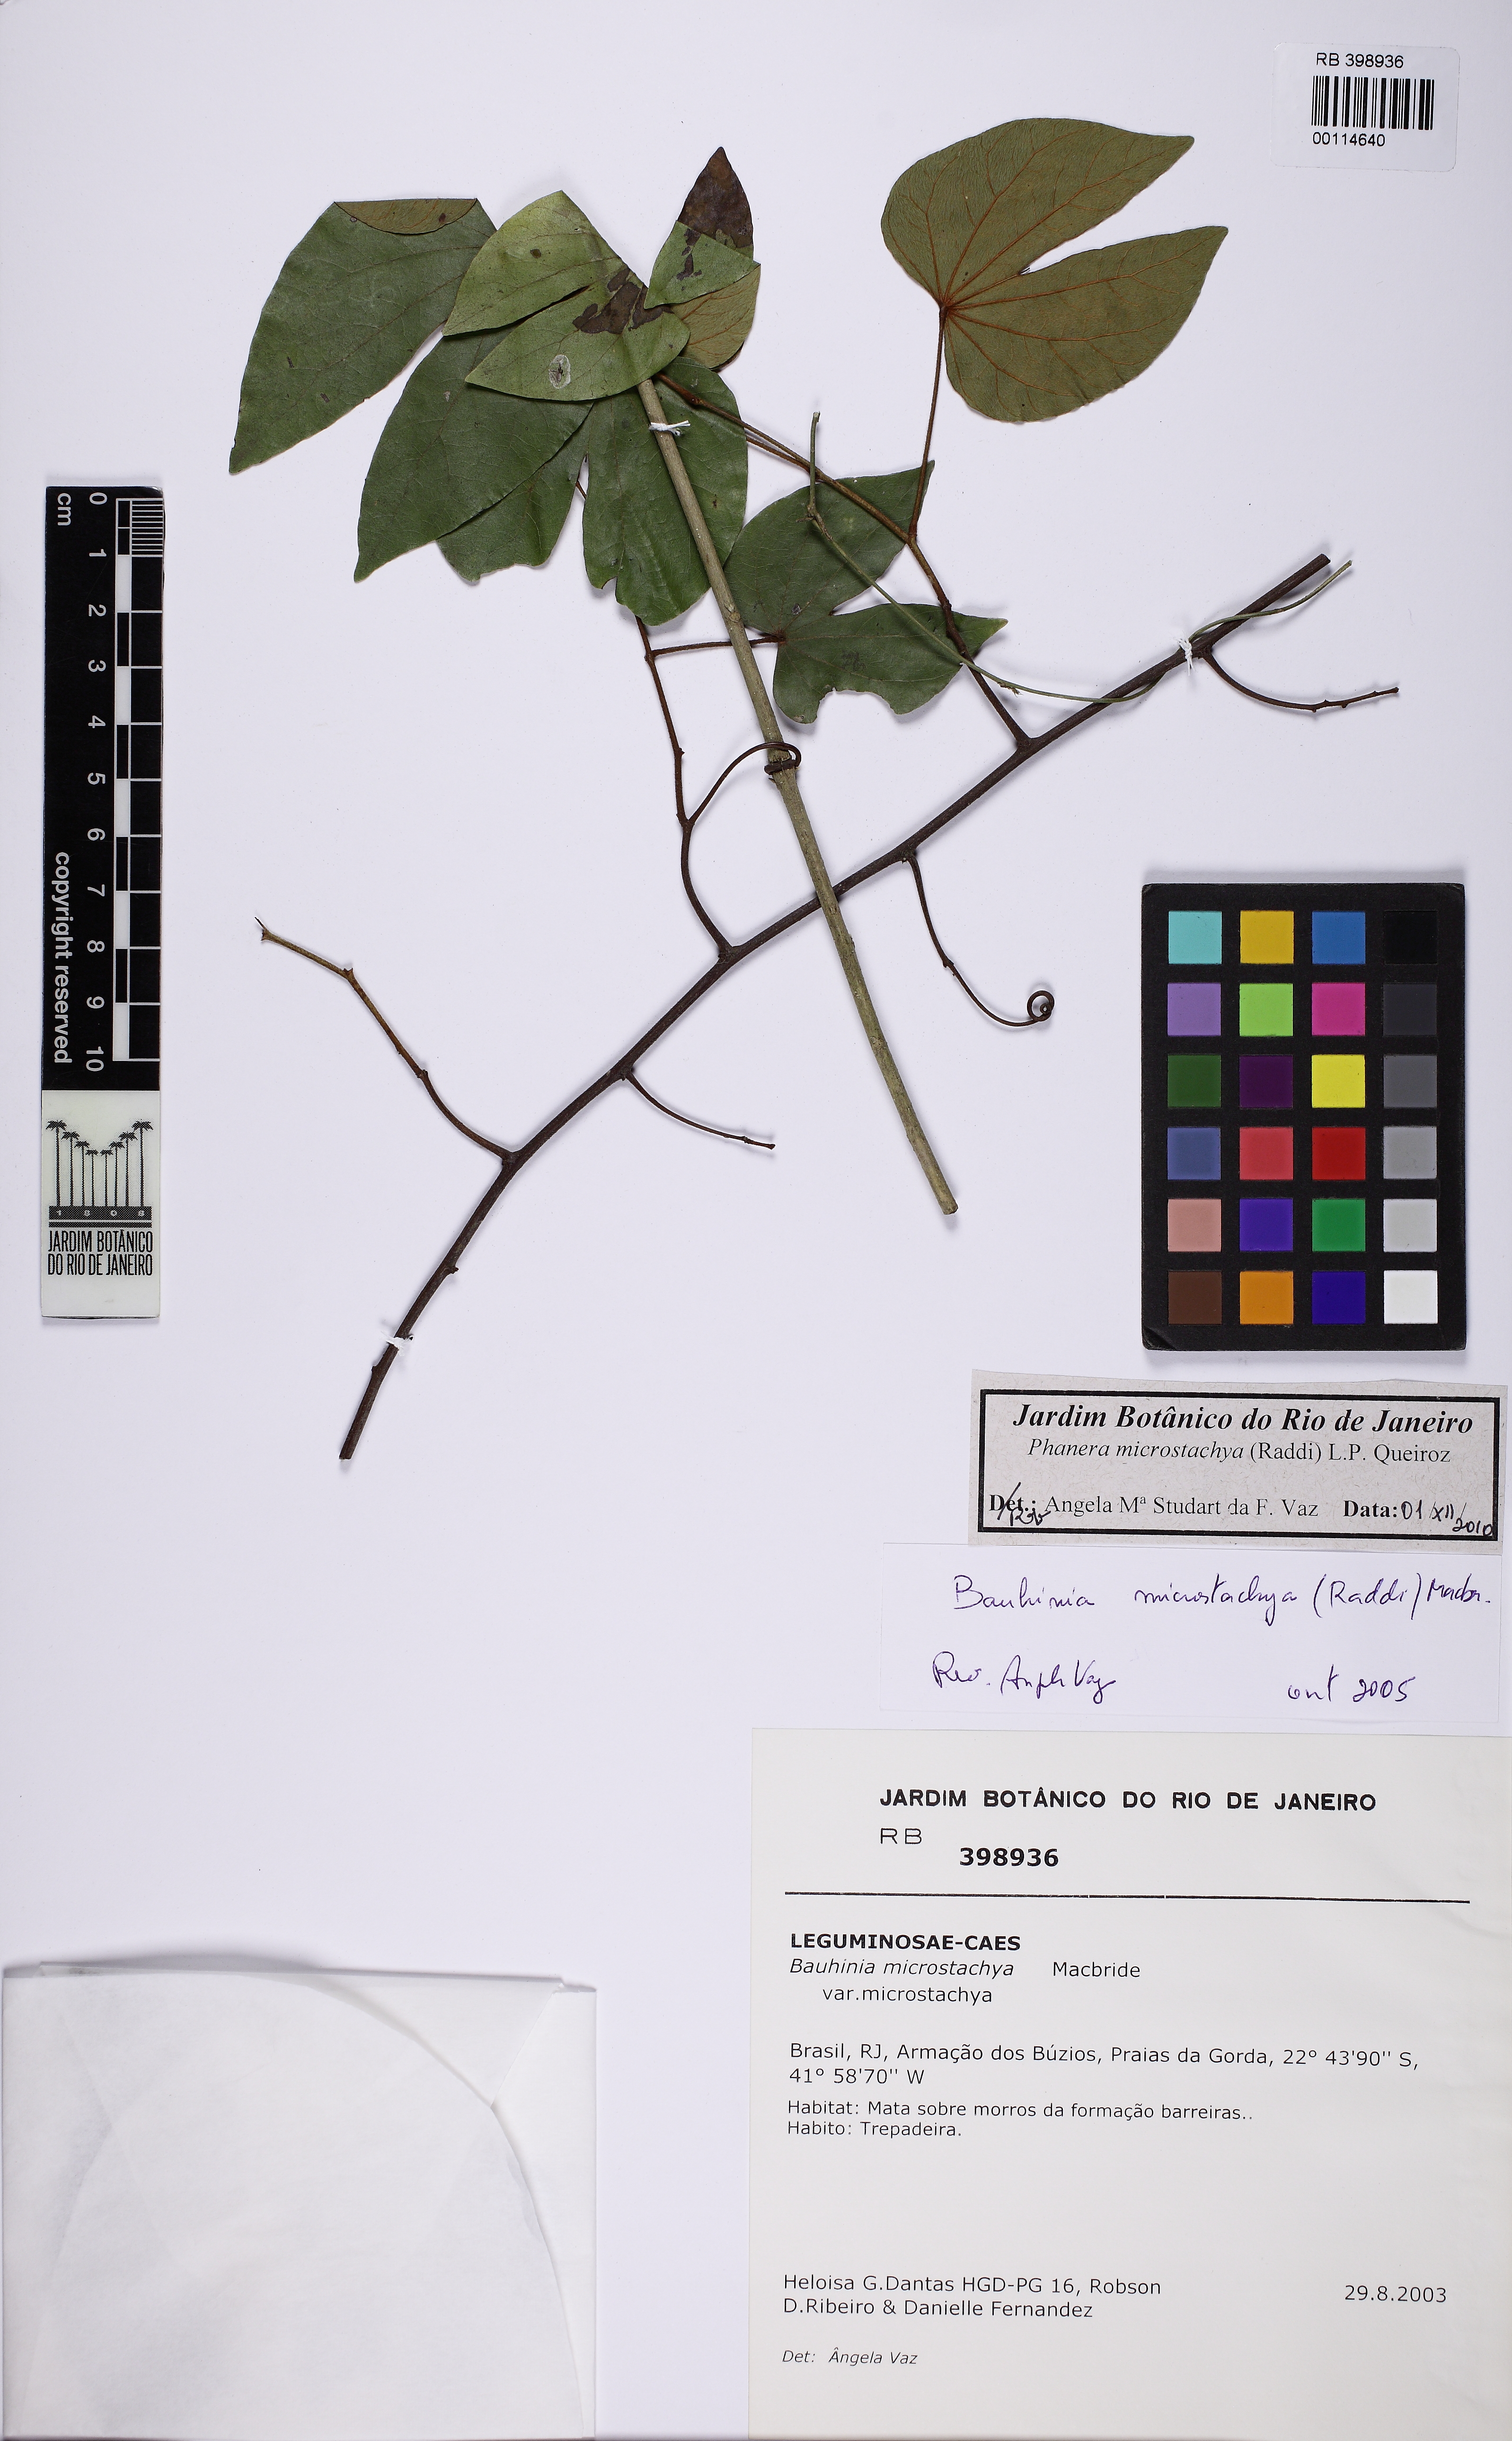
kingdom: Plantae
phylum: Tracheophyta
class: Magnoliopsida
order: Fabales
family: Fabaceae
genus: Schnella
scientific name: Schnella microstachya
